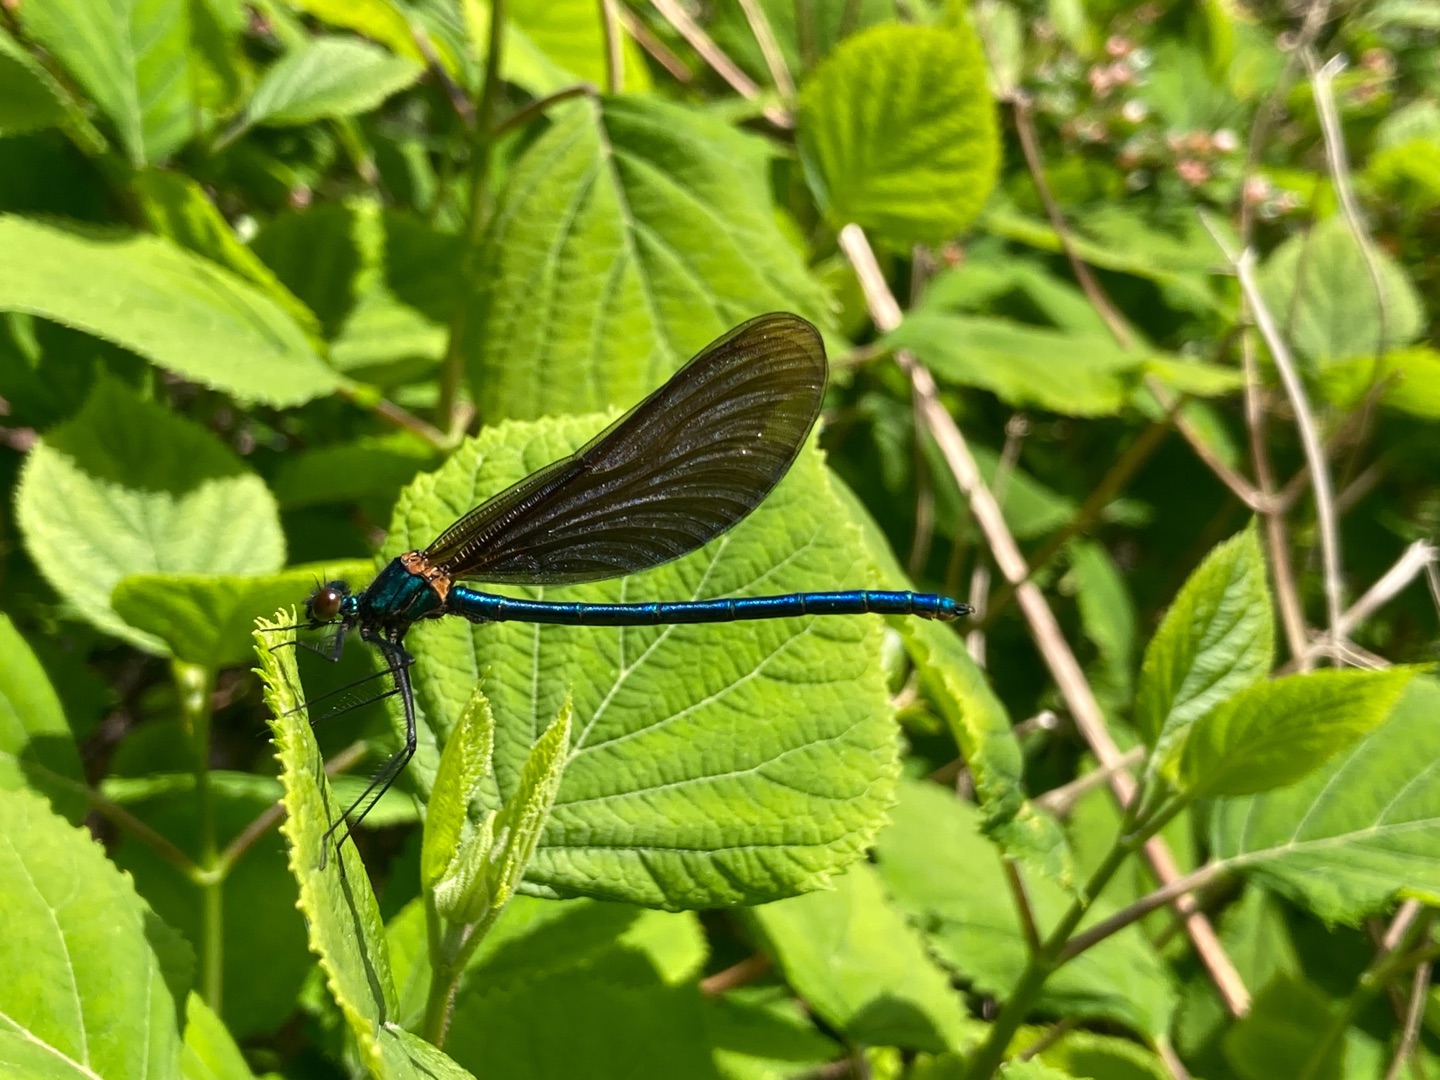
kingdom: Animalia
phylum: Arthropoda
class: Insecta
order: Odonata
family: Calopterygidae
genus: Calopteryx
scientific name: Calopteryx virgo
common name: Blåvinget pragtvandnymfe
